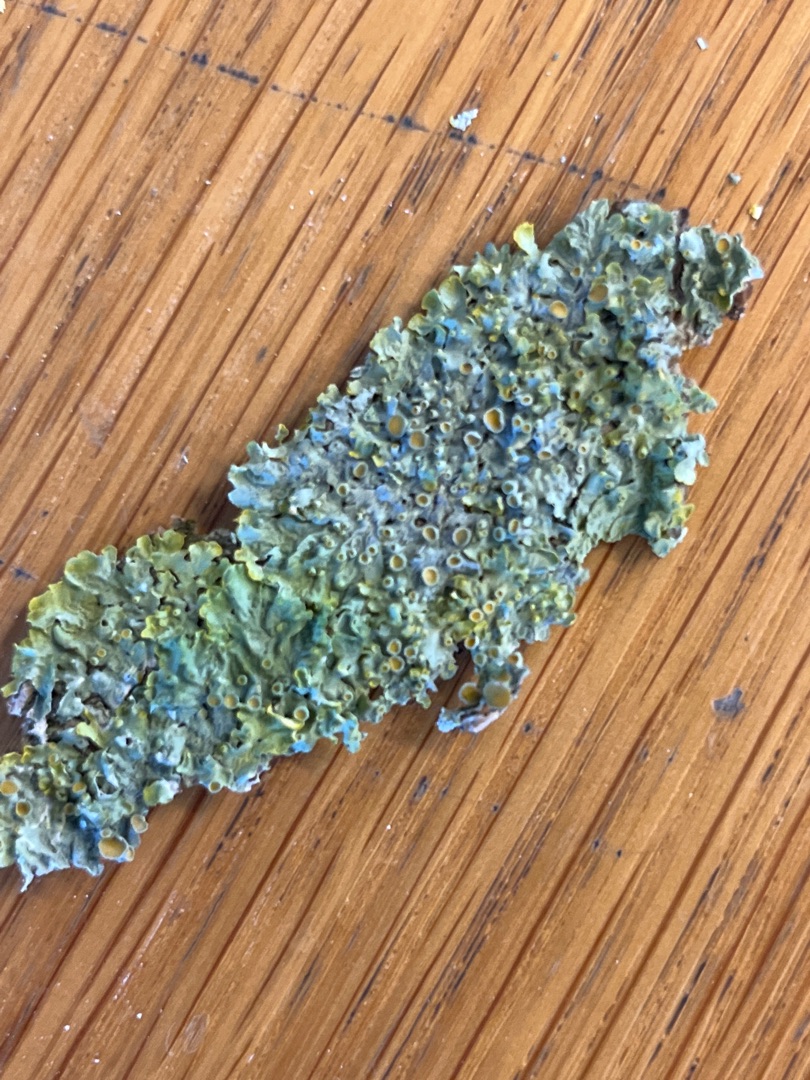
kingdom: Fungi
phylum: Ascomycota
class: Lecanoromycetes
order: Teloschistales
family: Teloschistaceae
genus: Xanthoria
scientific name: Xanthoria parietina
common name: Almindelig væggelav
